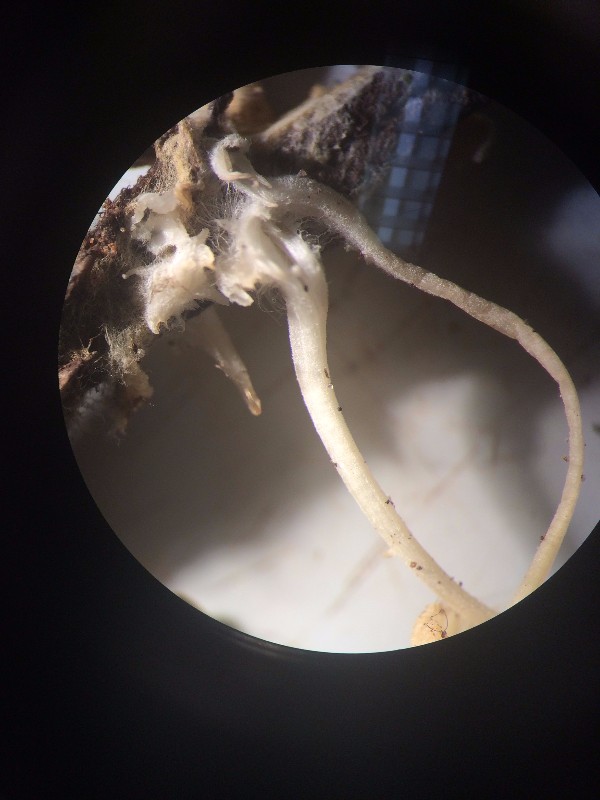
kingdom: Fungi
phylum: Basidiomycota
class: Agaricomycetes
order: Agaricales
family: Mycenaceae
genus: Hemimycena
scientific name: Hemimycena lactea
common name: mælkehvid huesvamp
